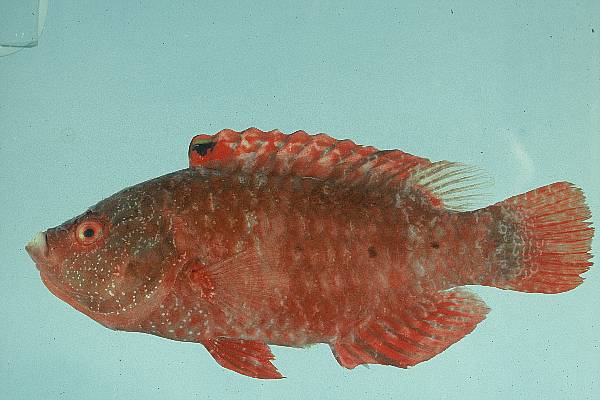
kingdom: Animalia
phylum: Chordata
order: Perciformes
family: Labridae
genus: Cheilinus
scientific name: Cheilinus oxycephalus
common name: Snooty wrasse
